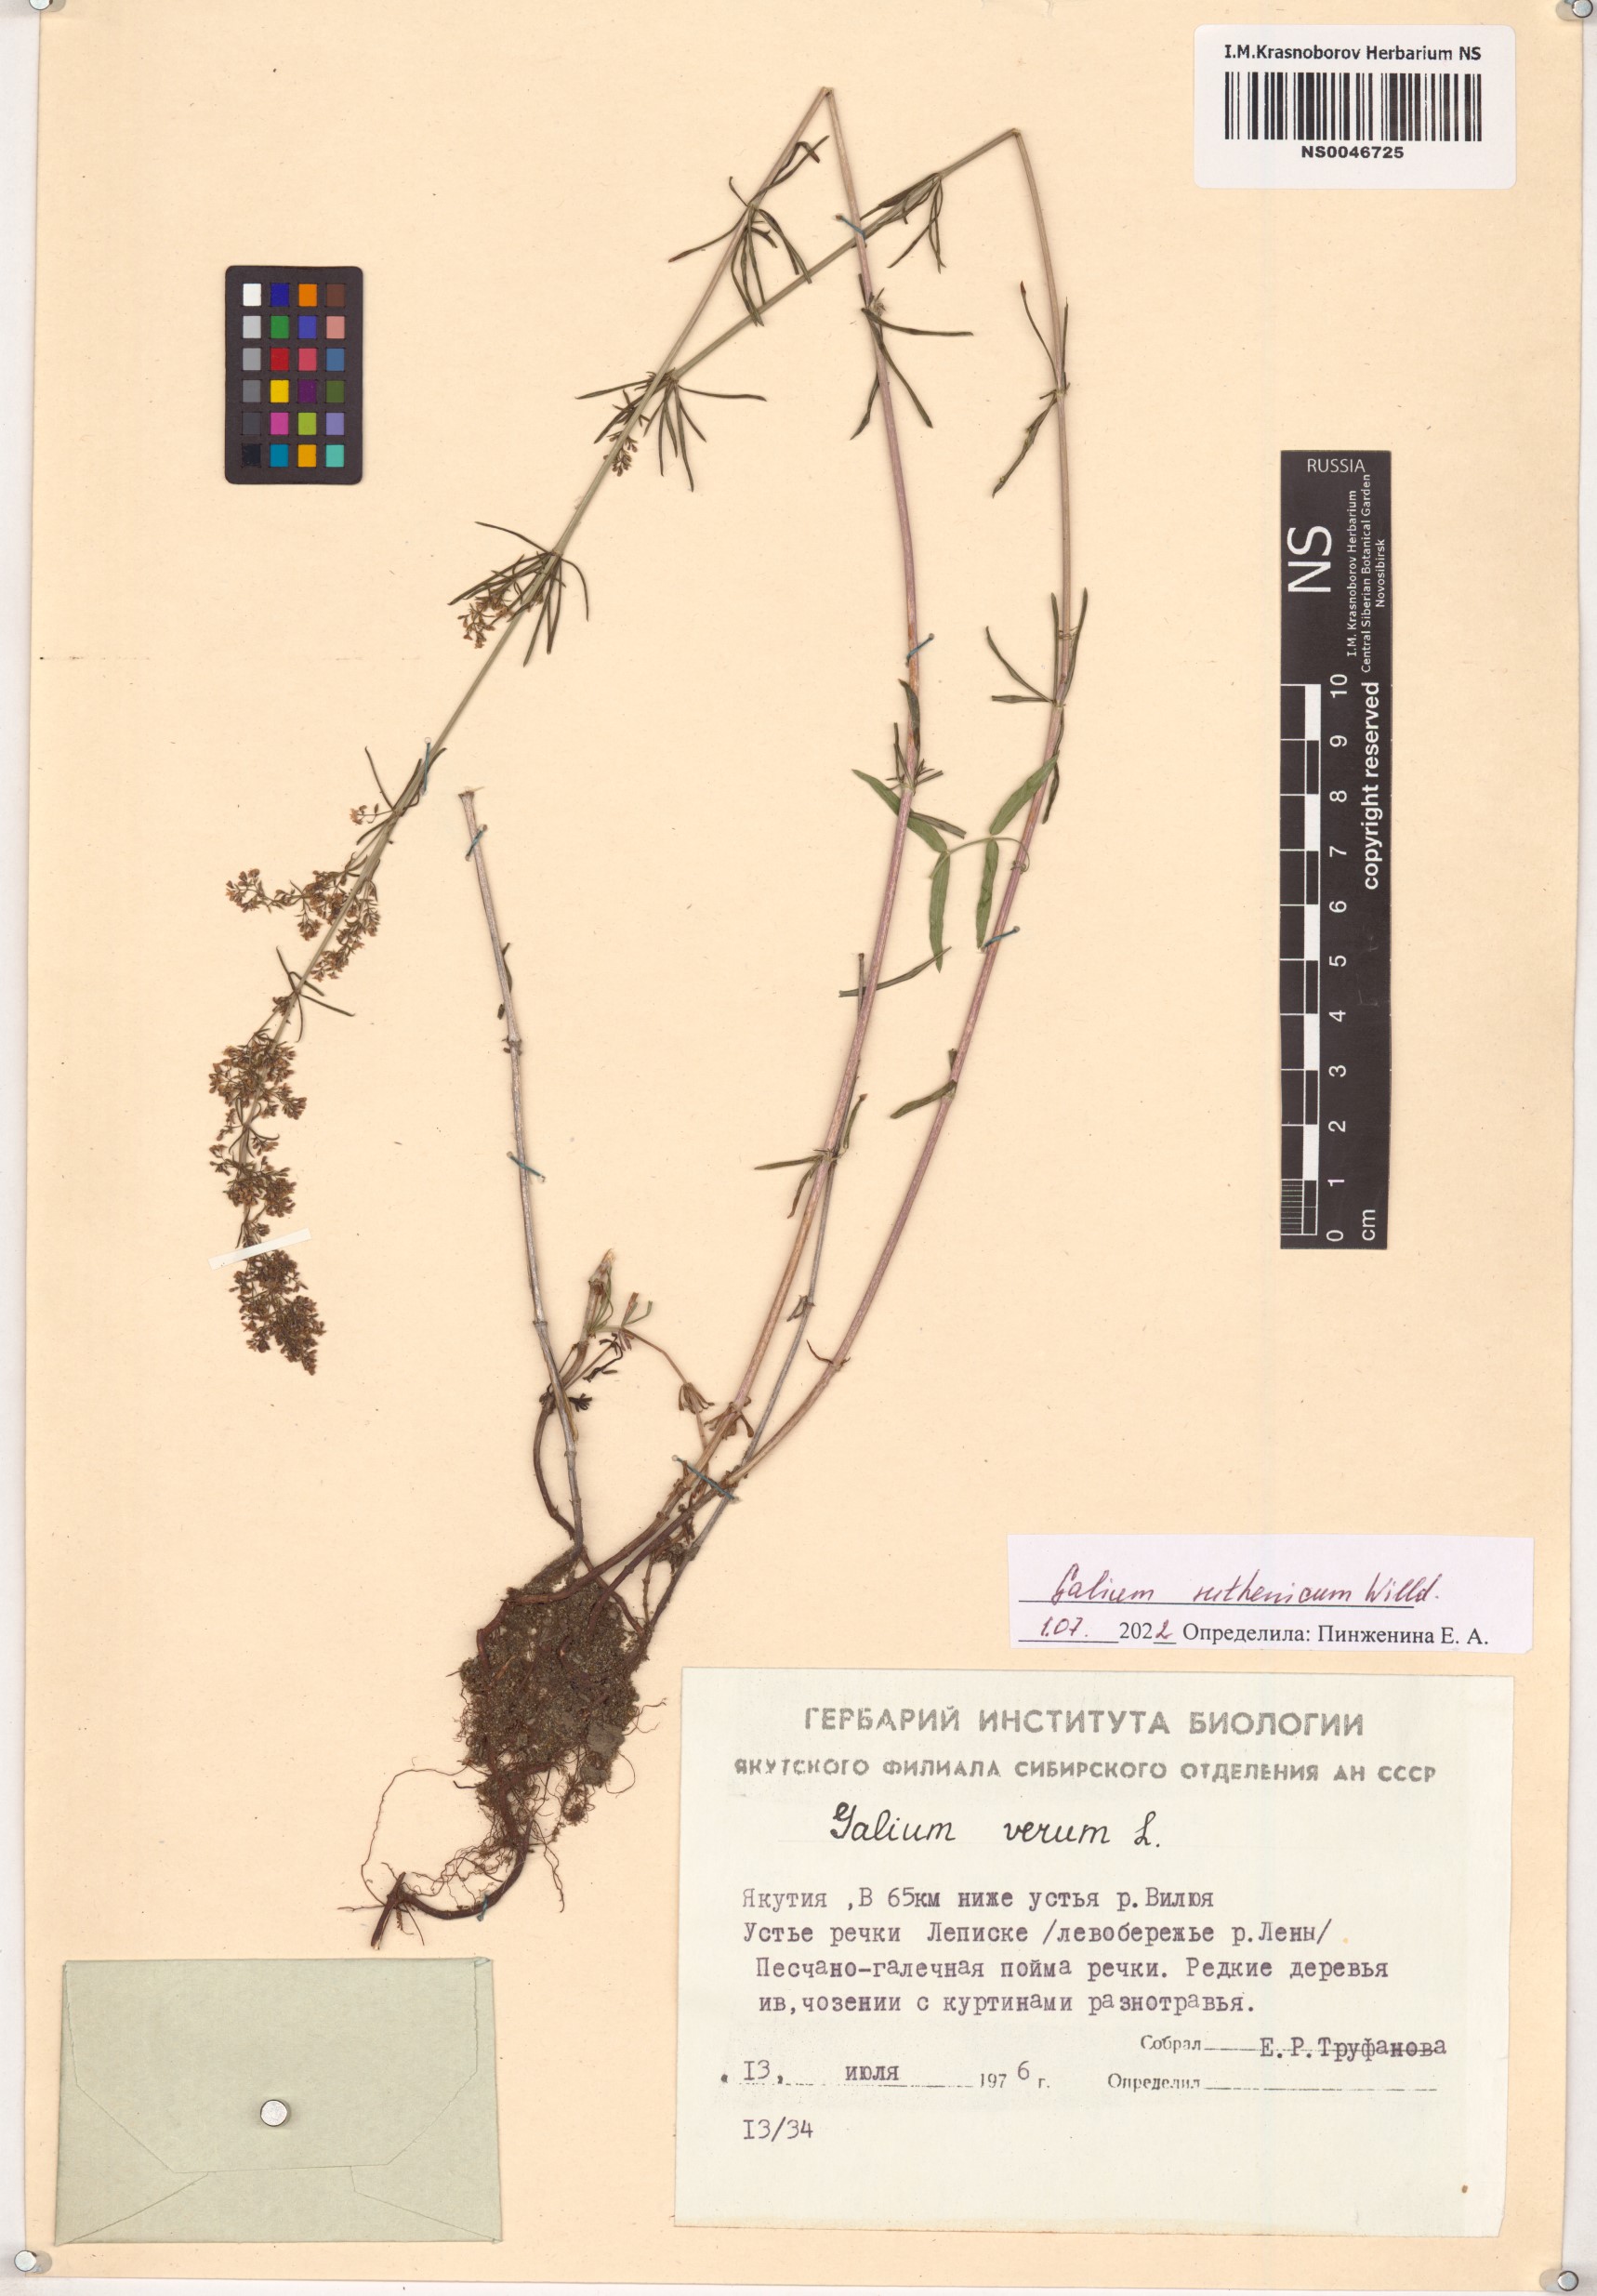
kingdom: Plantae
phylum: Tracheophyta
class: Magnoliopsida
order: Gentianales
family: Rubiaceae
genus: Galium
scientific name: Galium verum
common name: Lady's bedstraw
